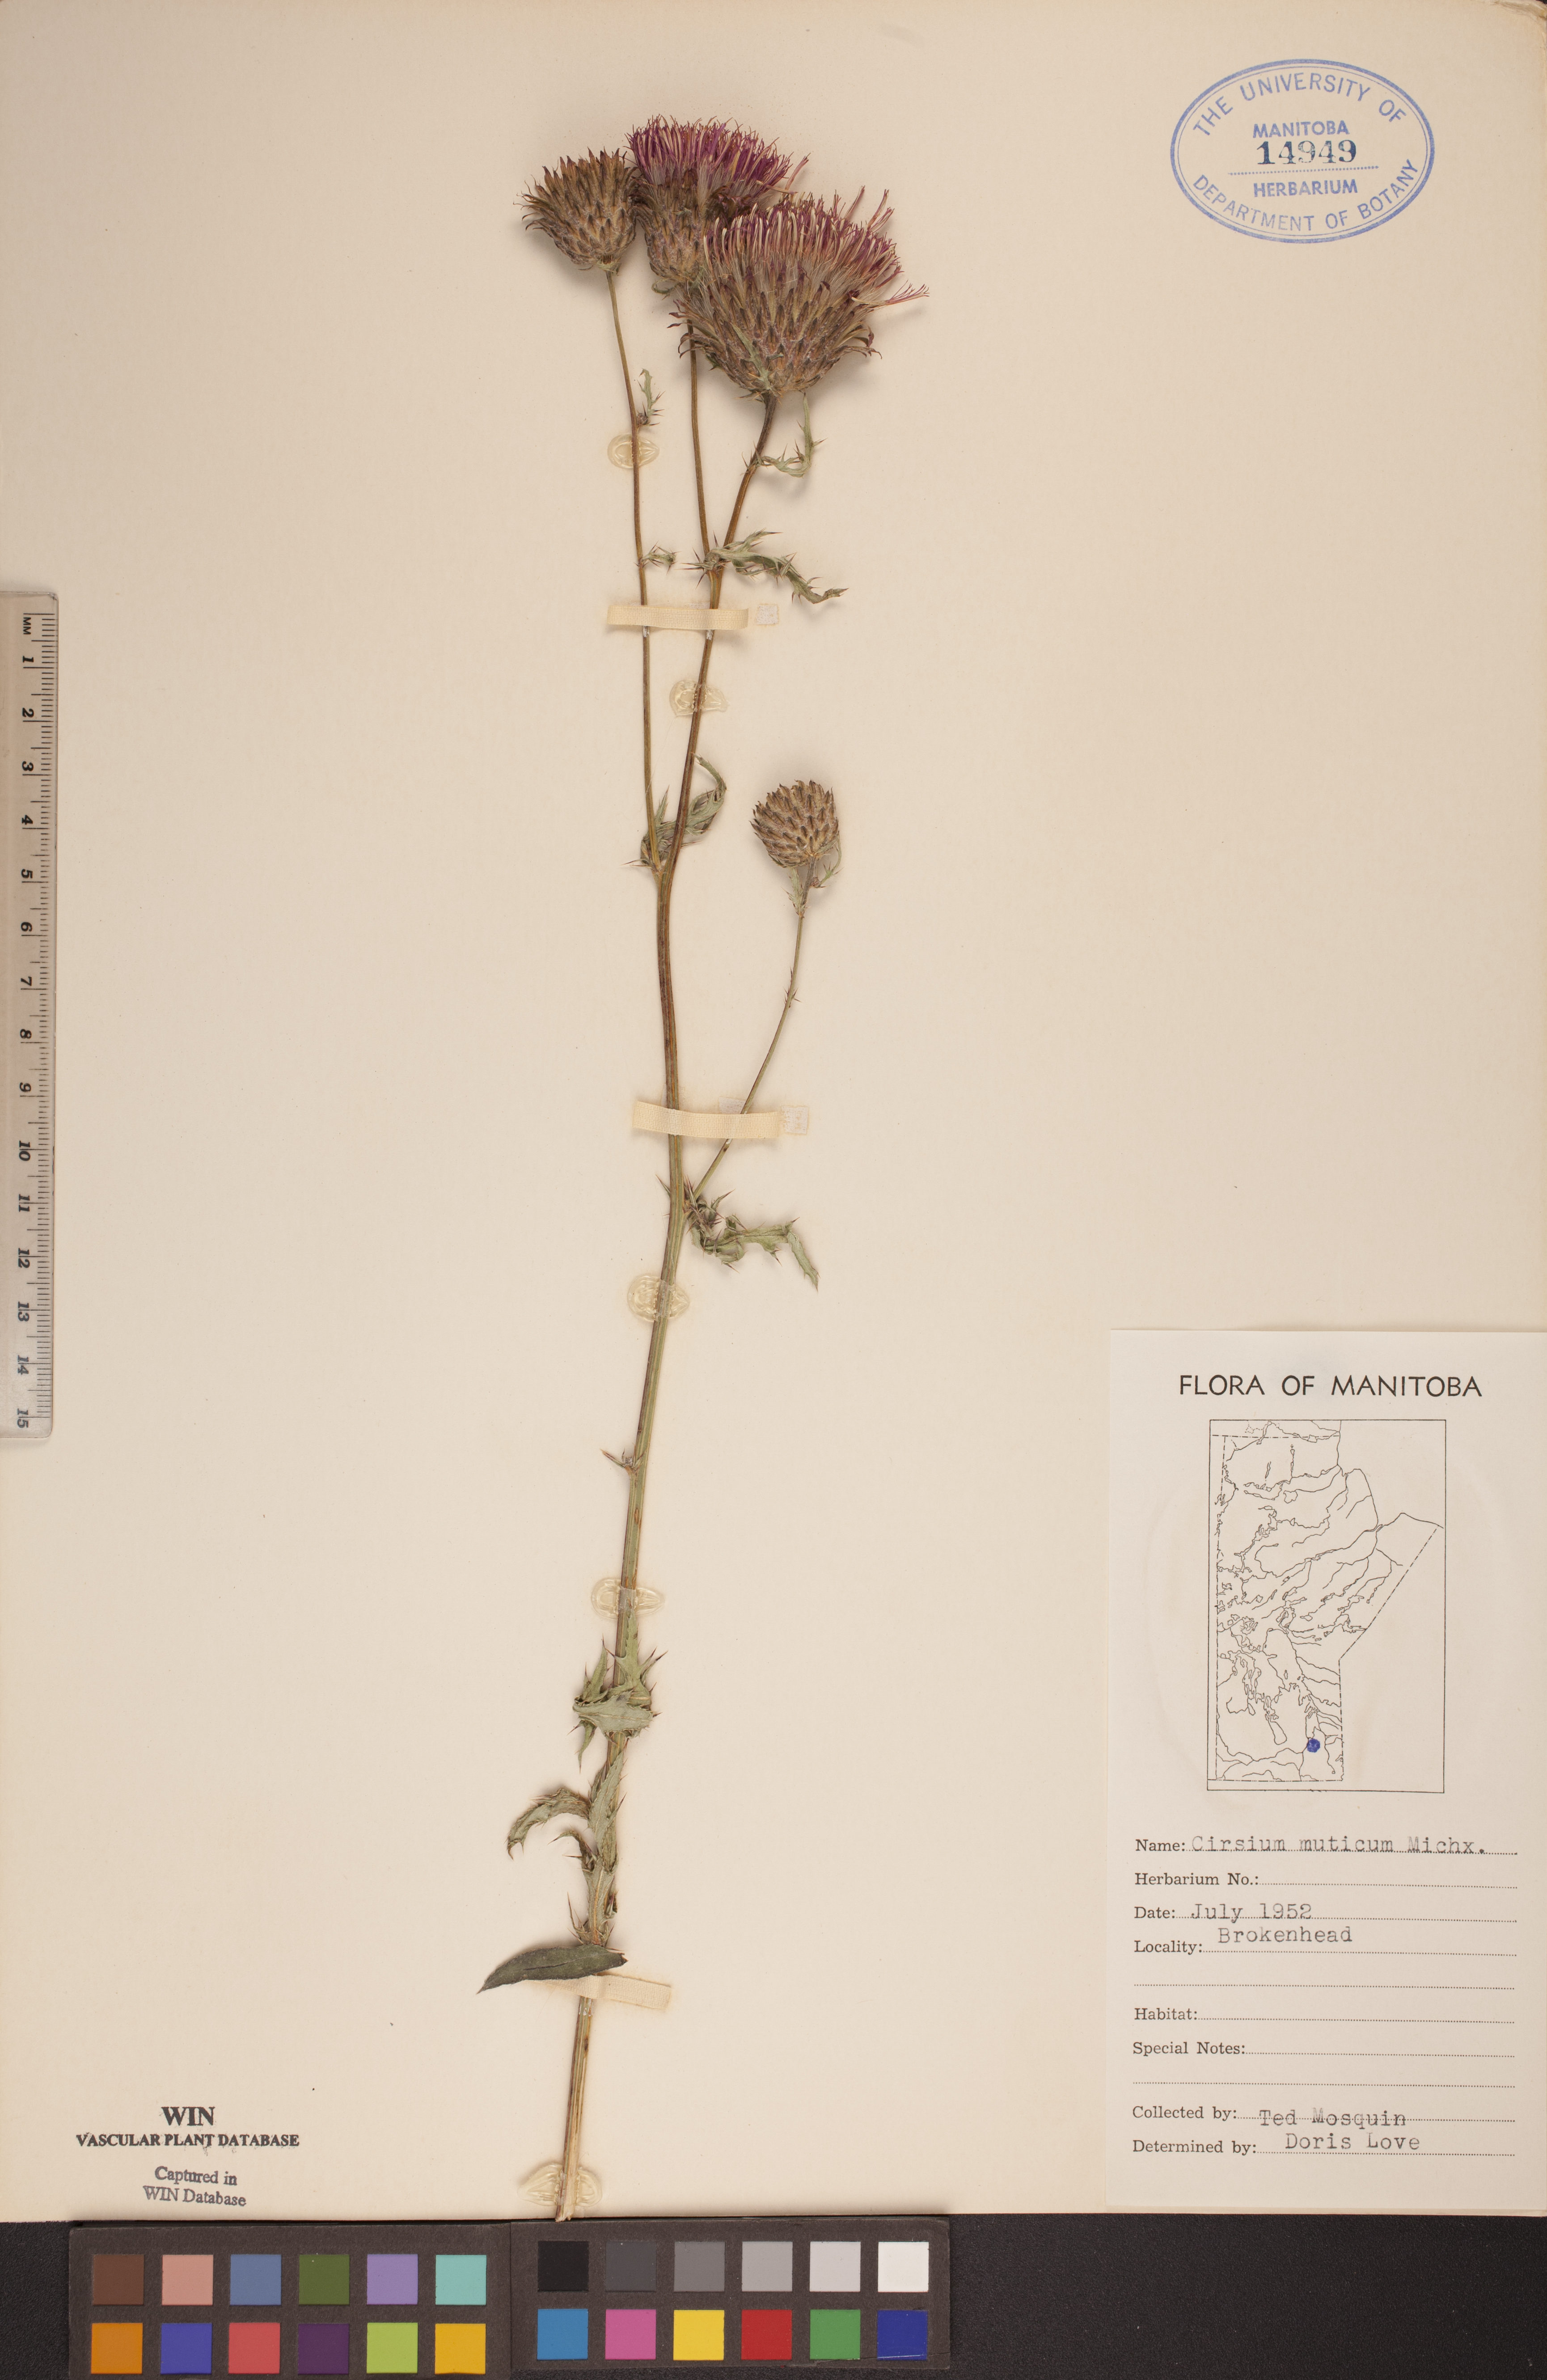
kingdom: Plantae
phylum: Tracheophyta
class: Magnoliopsida
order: Asterales
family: Asteraceae
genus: Cirsium
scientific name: Cirsium muticum
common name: Dunce-nettle
